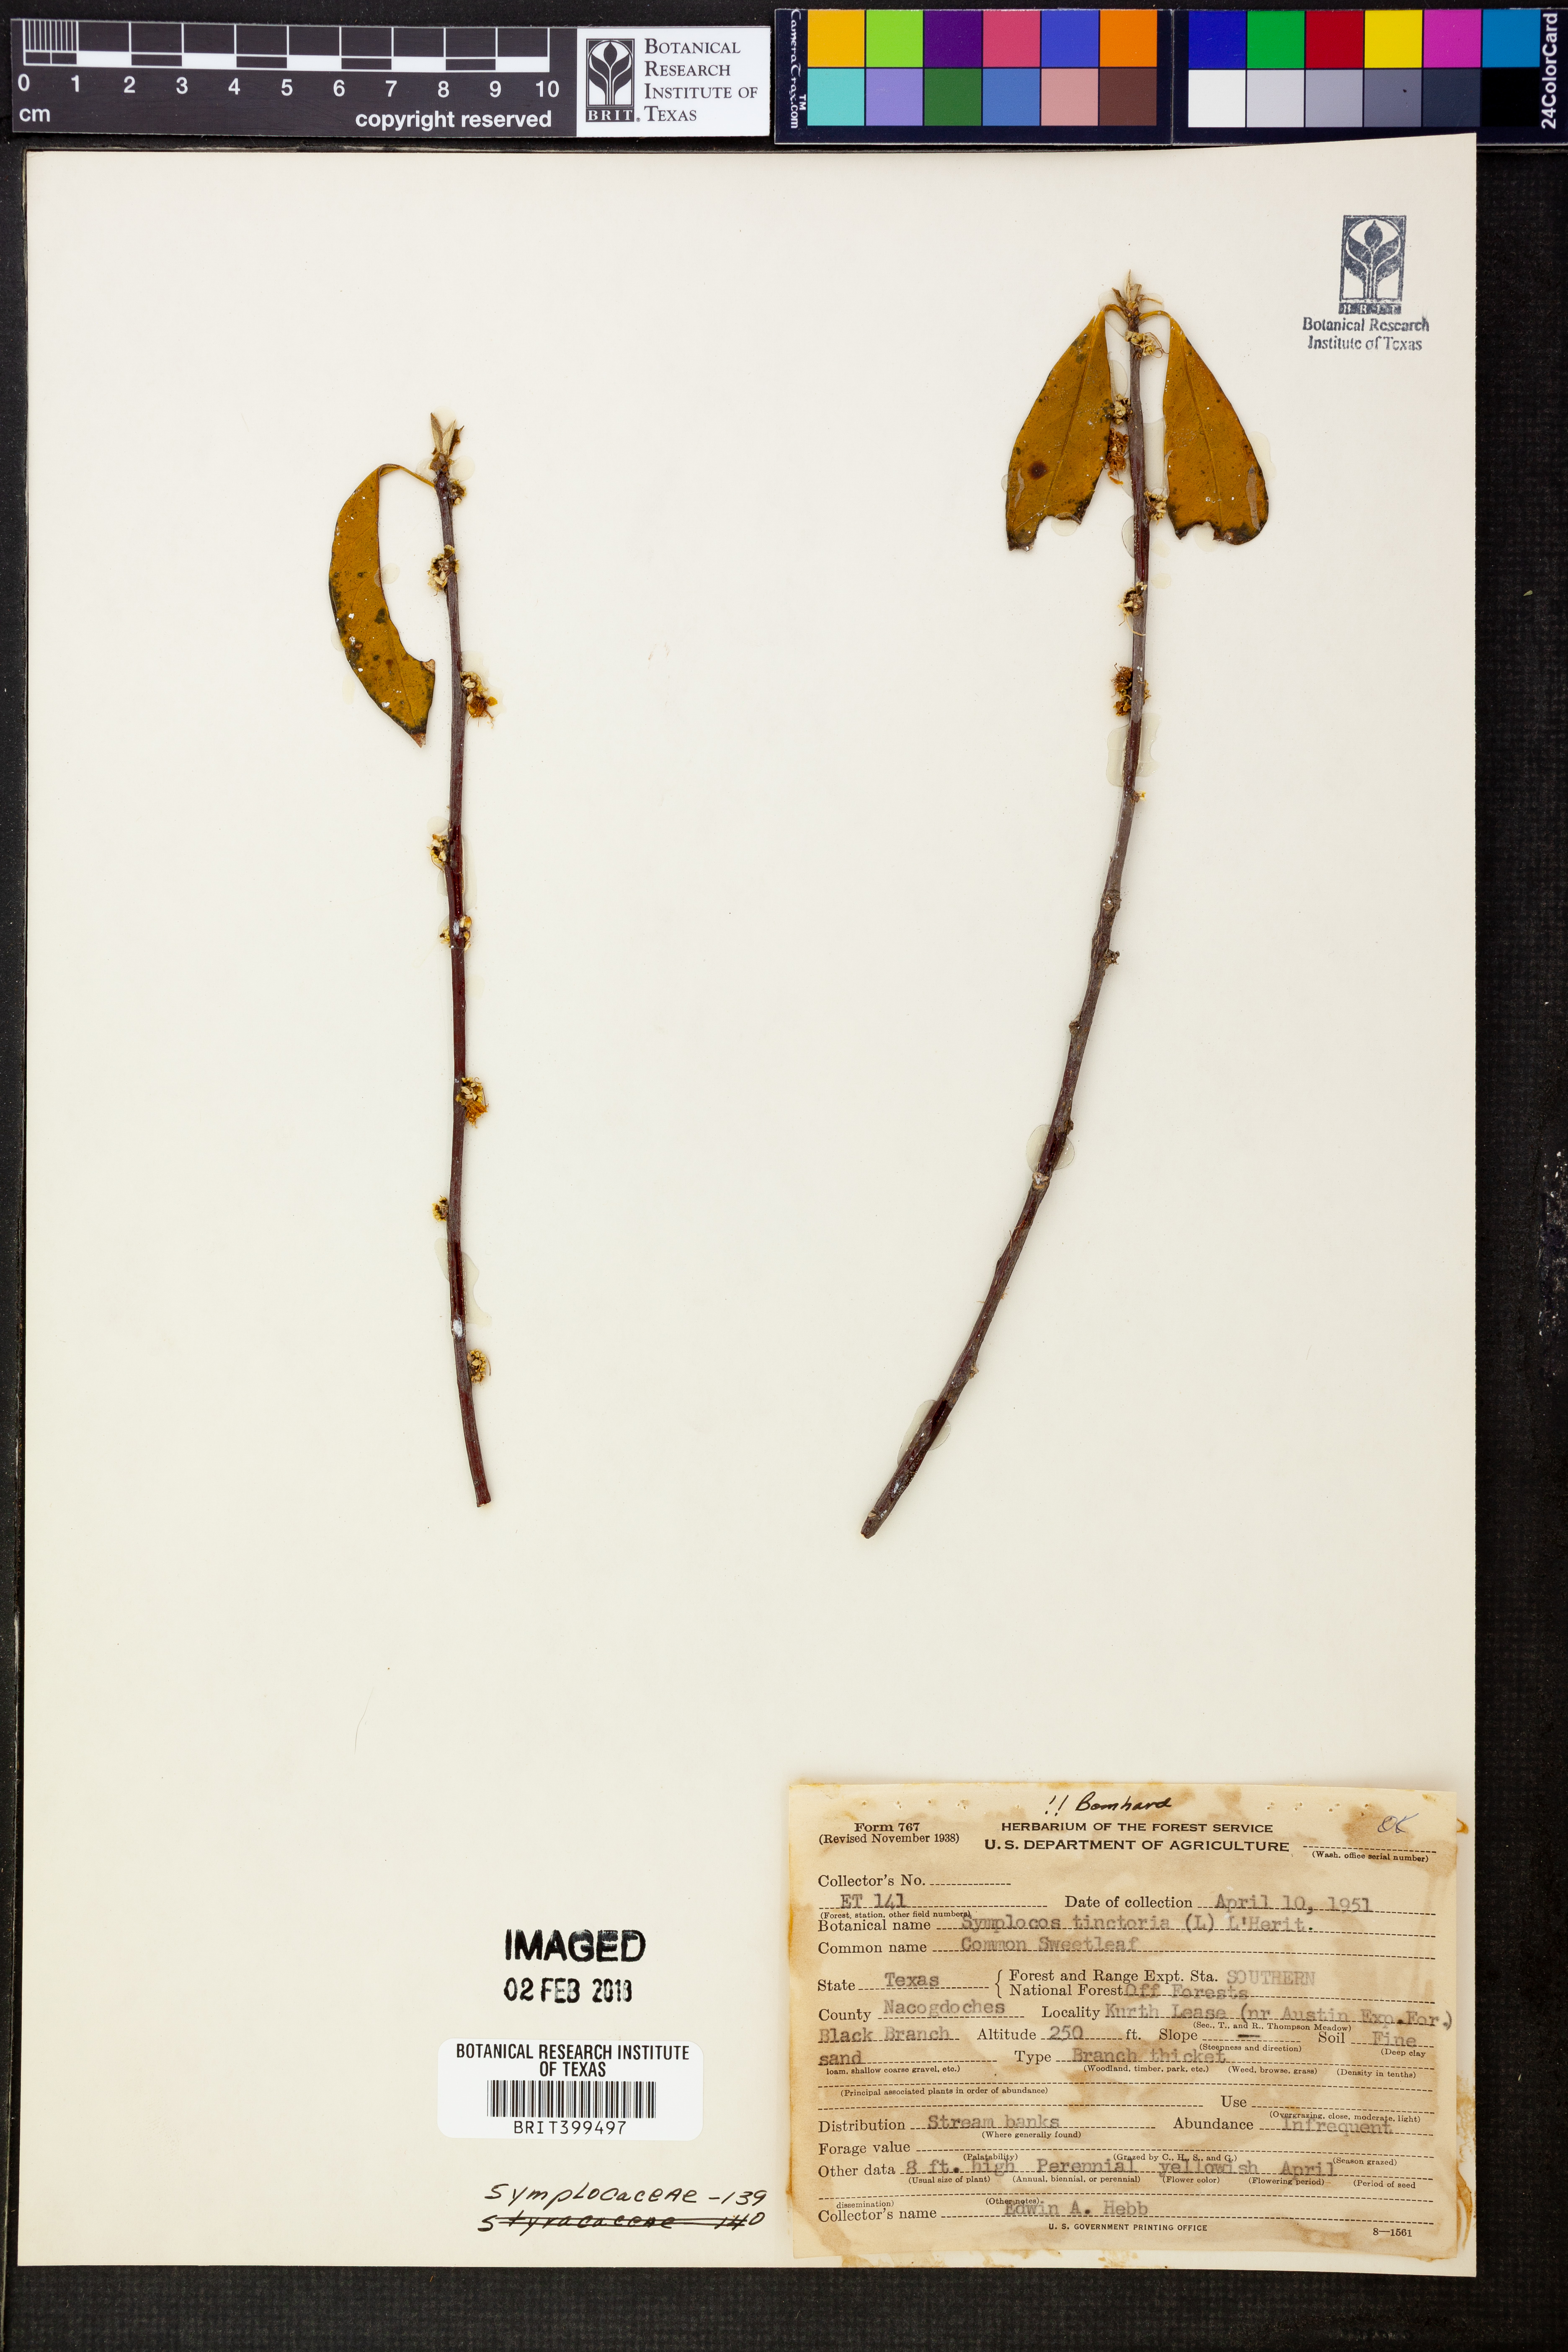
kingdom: Plantae
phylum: Tracheophyta
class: Magnoliopsida
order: Ericales
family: Symplocaceae
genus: Symplocos
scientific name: Symplocos tinctoria
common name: Horse-sugar
